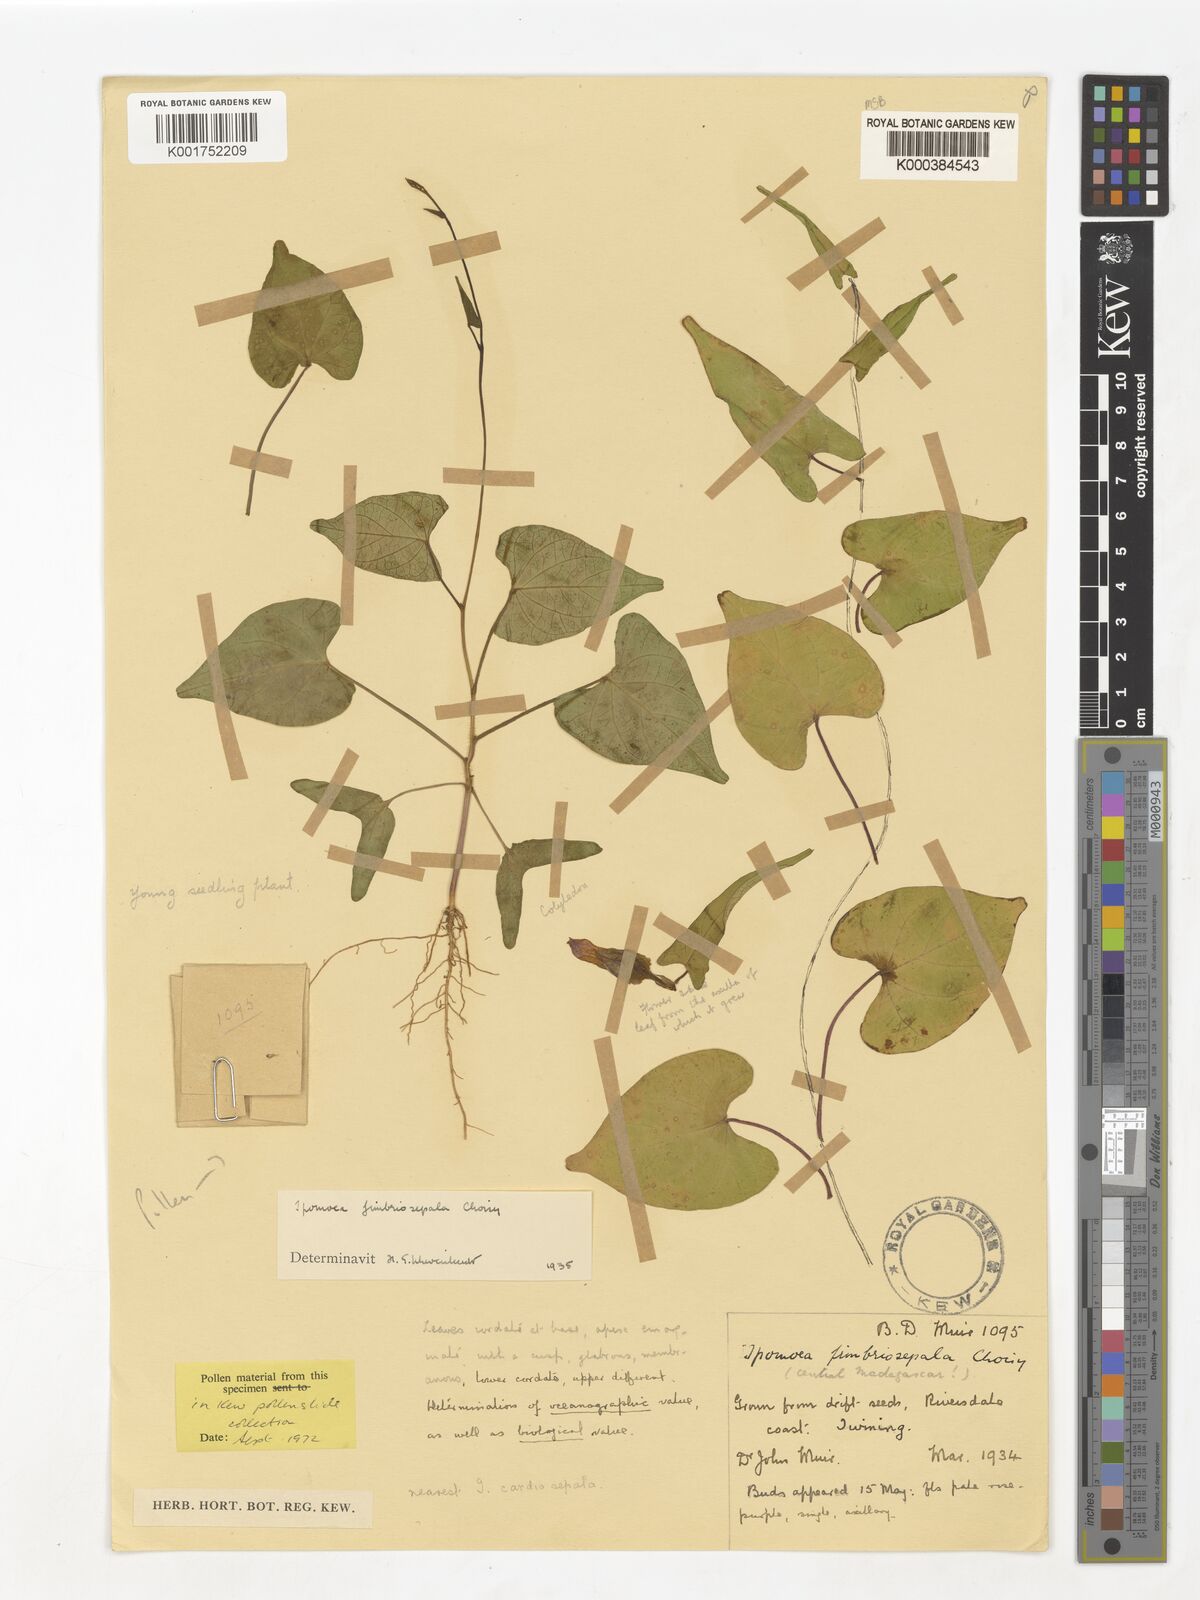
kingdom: Plantae
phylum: Tracheophyta
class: Magnoliopsida
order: Solanales
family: Convolvulaceae
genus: Ipomoea
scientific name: Ipomoea fimbriosepala
